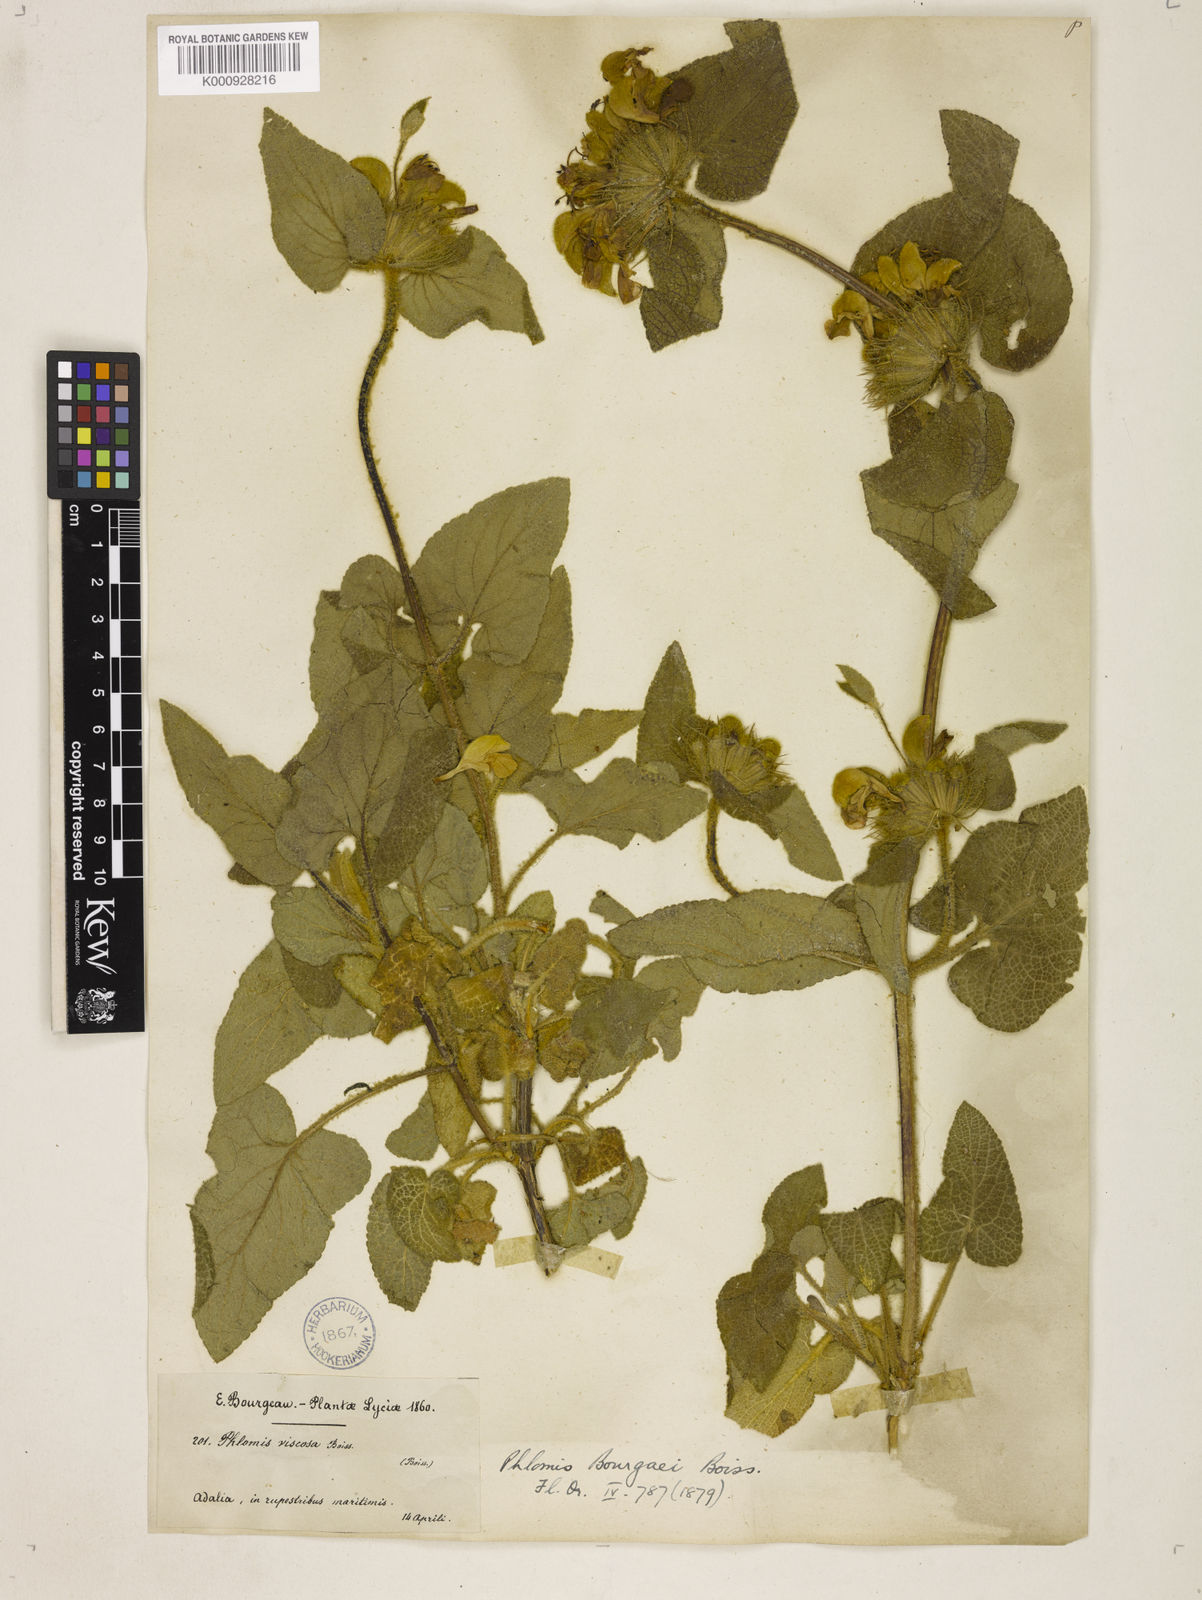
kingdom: Plantae
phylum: Tracheophyta
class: Magnoliopsida
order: Lamiales
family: Lamiaceae
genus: Phlomis
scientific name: Phlomis bourgaei
